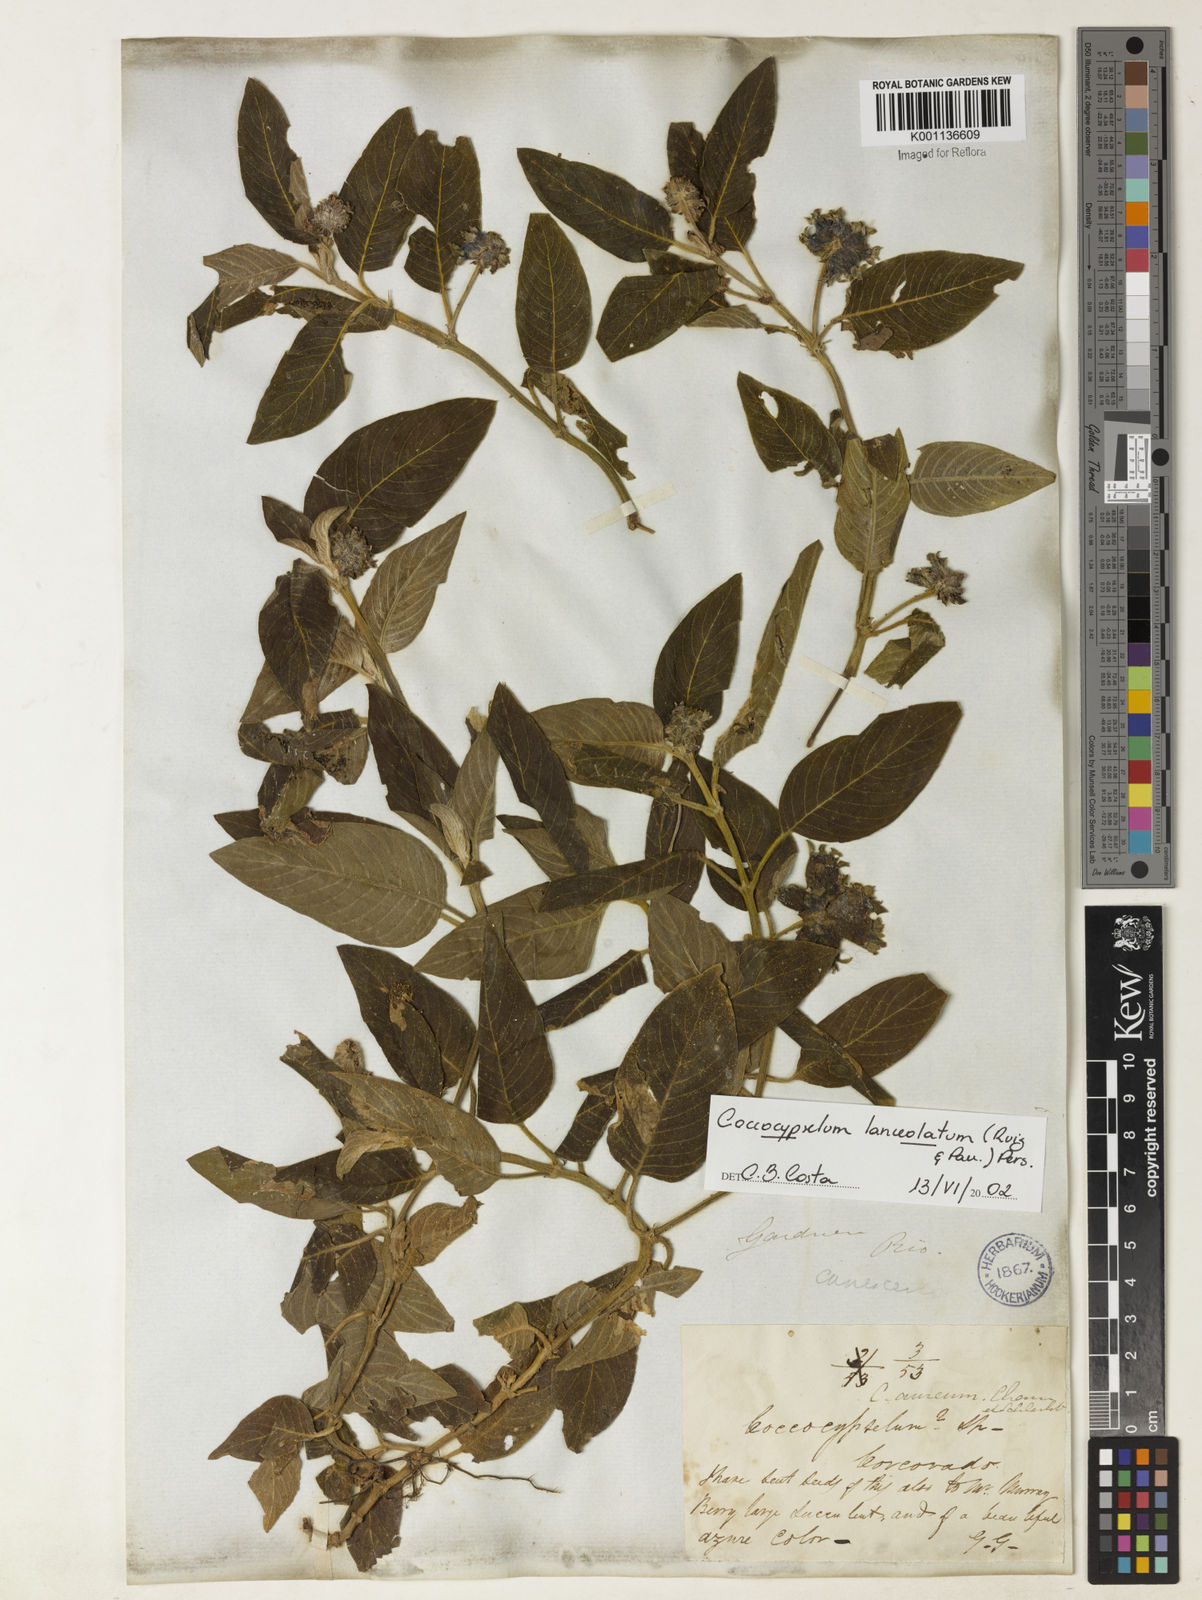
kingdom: Plantae
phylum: Tracheophyta
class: Magnoliopsida
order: Gentianales
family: Rubiaceae
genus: Coccocypselum
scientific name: Coccocypselum lanceolatum
